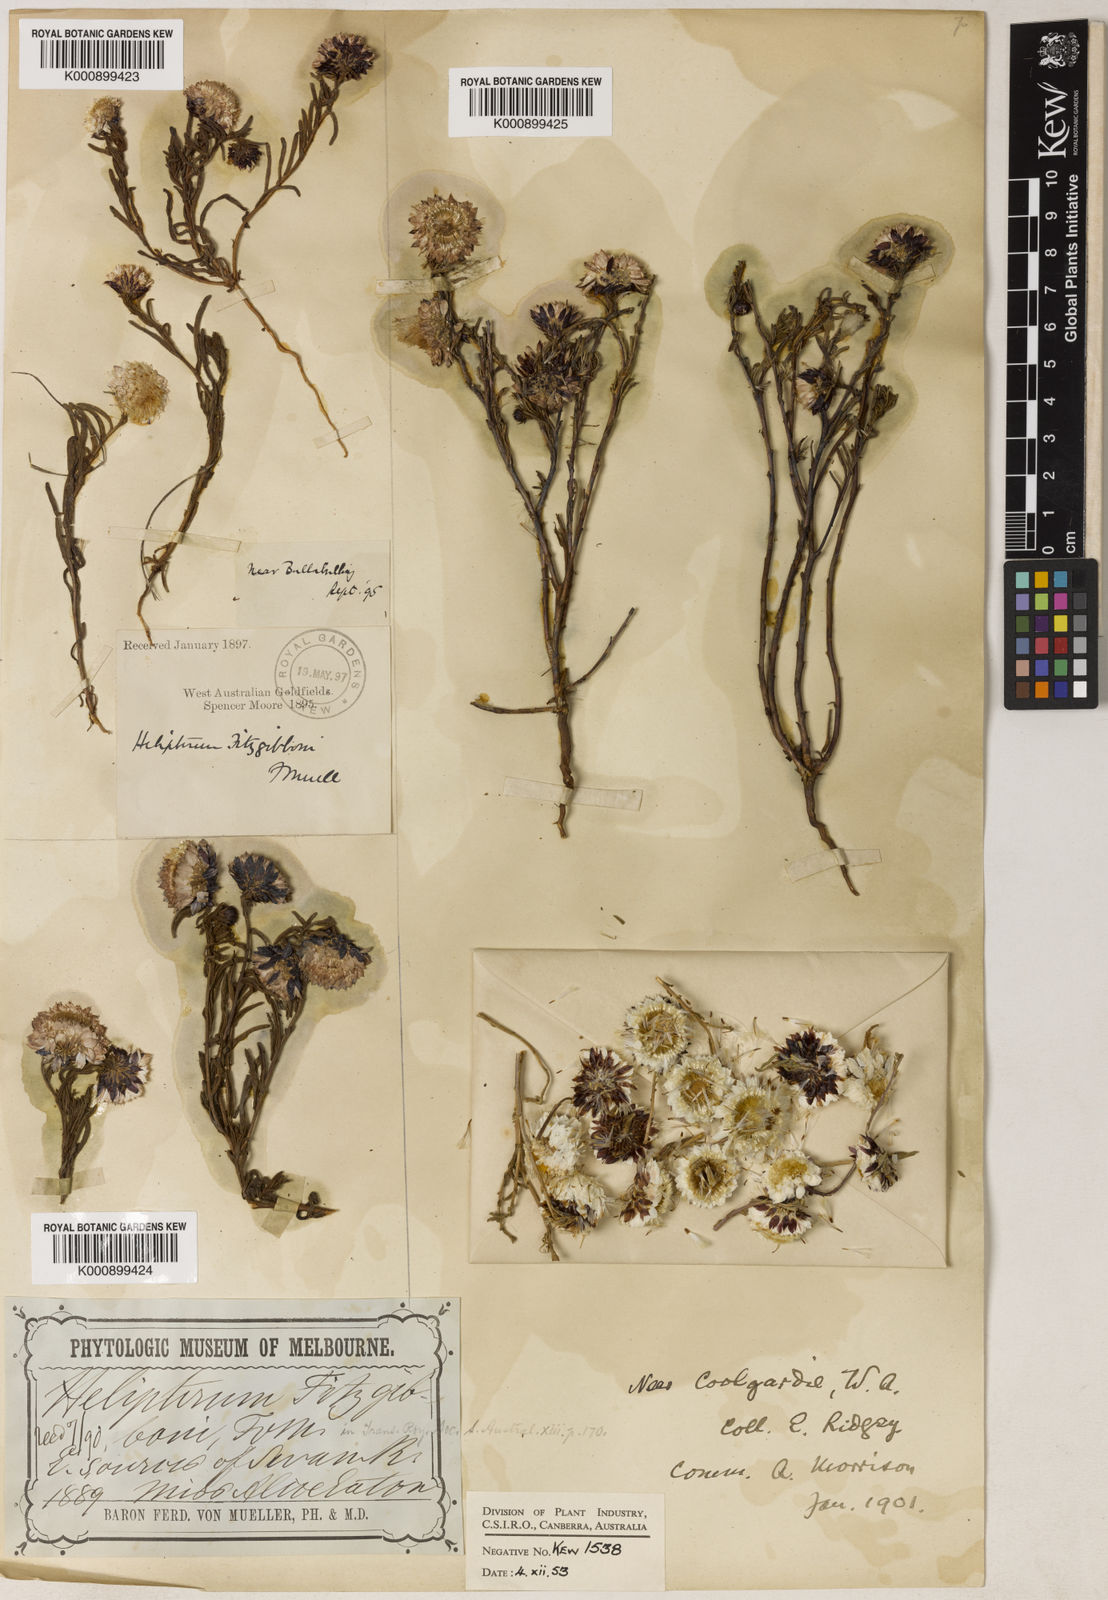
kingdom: Plantae
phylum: Tracheophyta
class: Magnoliopsida
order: Asterales
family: Asteraceae
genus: Waitzia
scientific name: Waitzia fitzgibbonii
